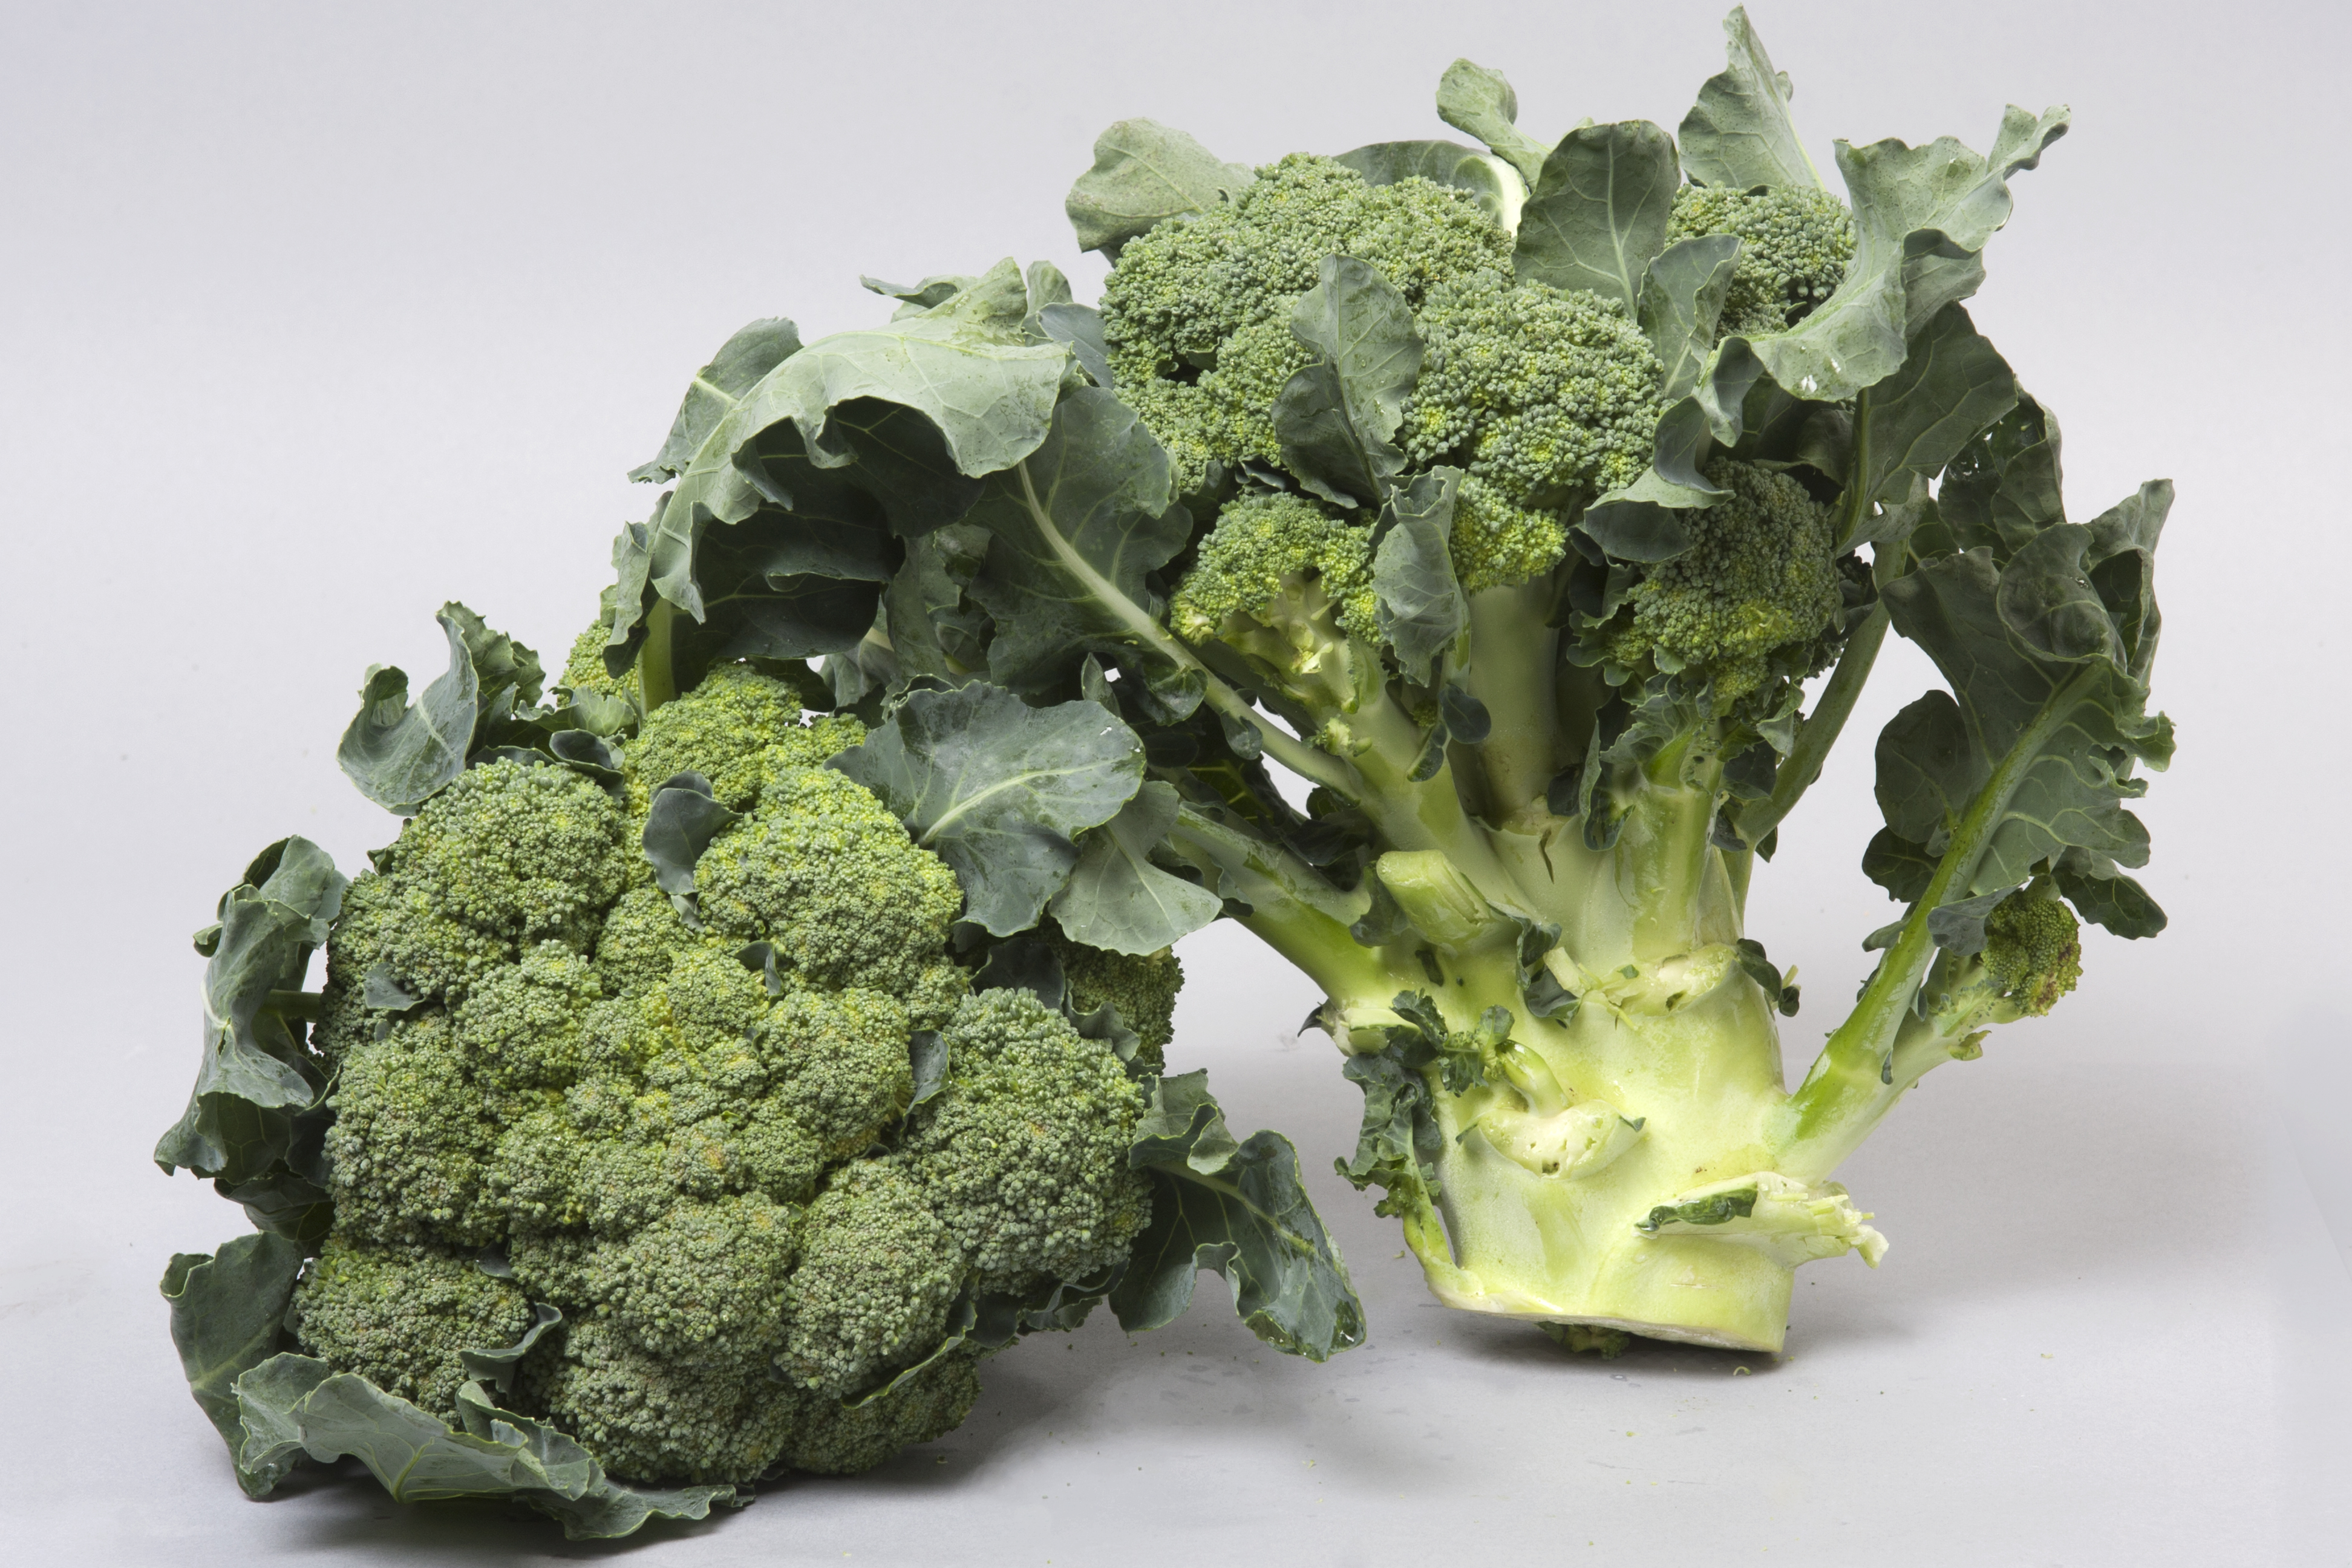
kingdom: Plantae
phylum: Tracheophyta
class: Magnoliopsida
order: Brassicales
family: Brassicaceae
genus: Brassica
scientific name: Brassica oleracea
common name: Cabbage
